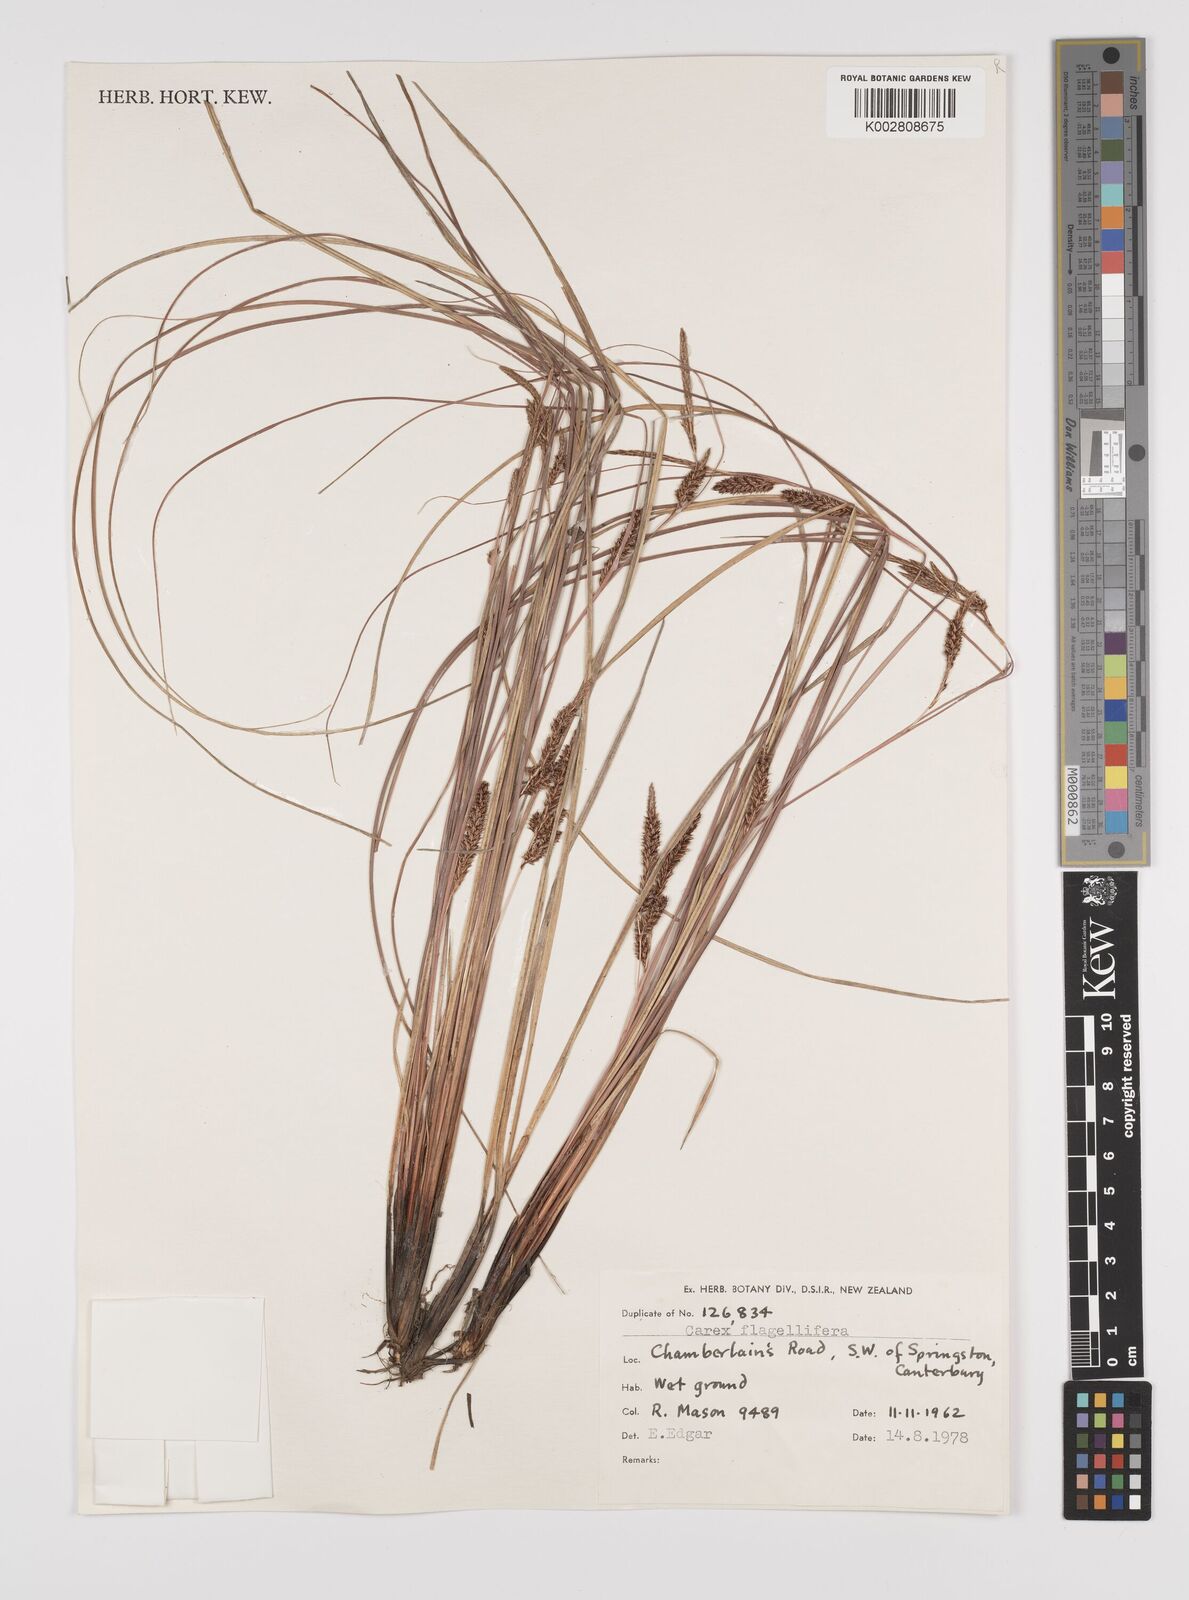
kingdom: Plantae
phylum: Tracheophyta
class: Liliopsida
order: Poales
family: Cyperaceae
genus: Carex
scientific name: Carex flagellifera
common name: Glen murray tussock
